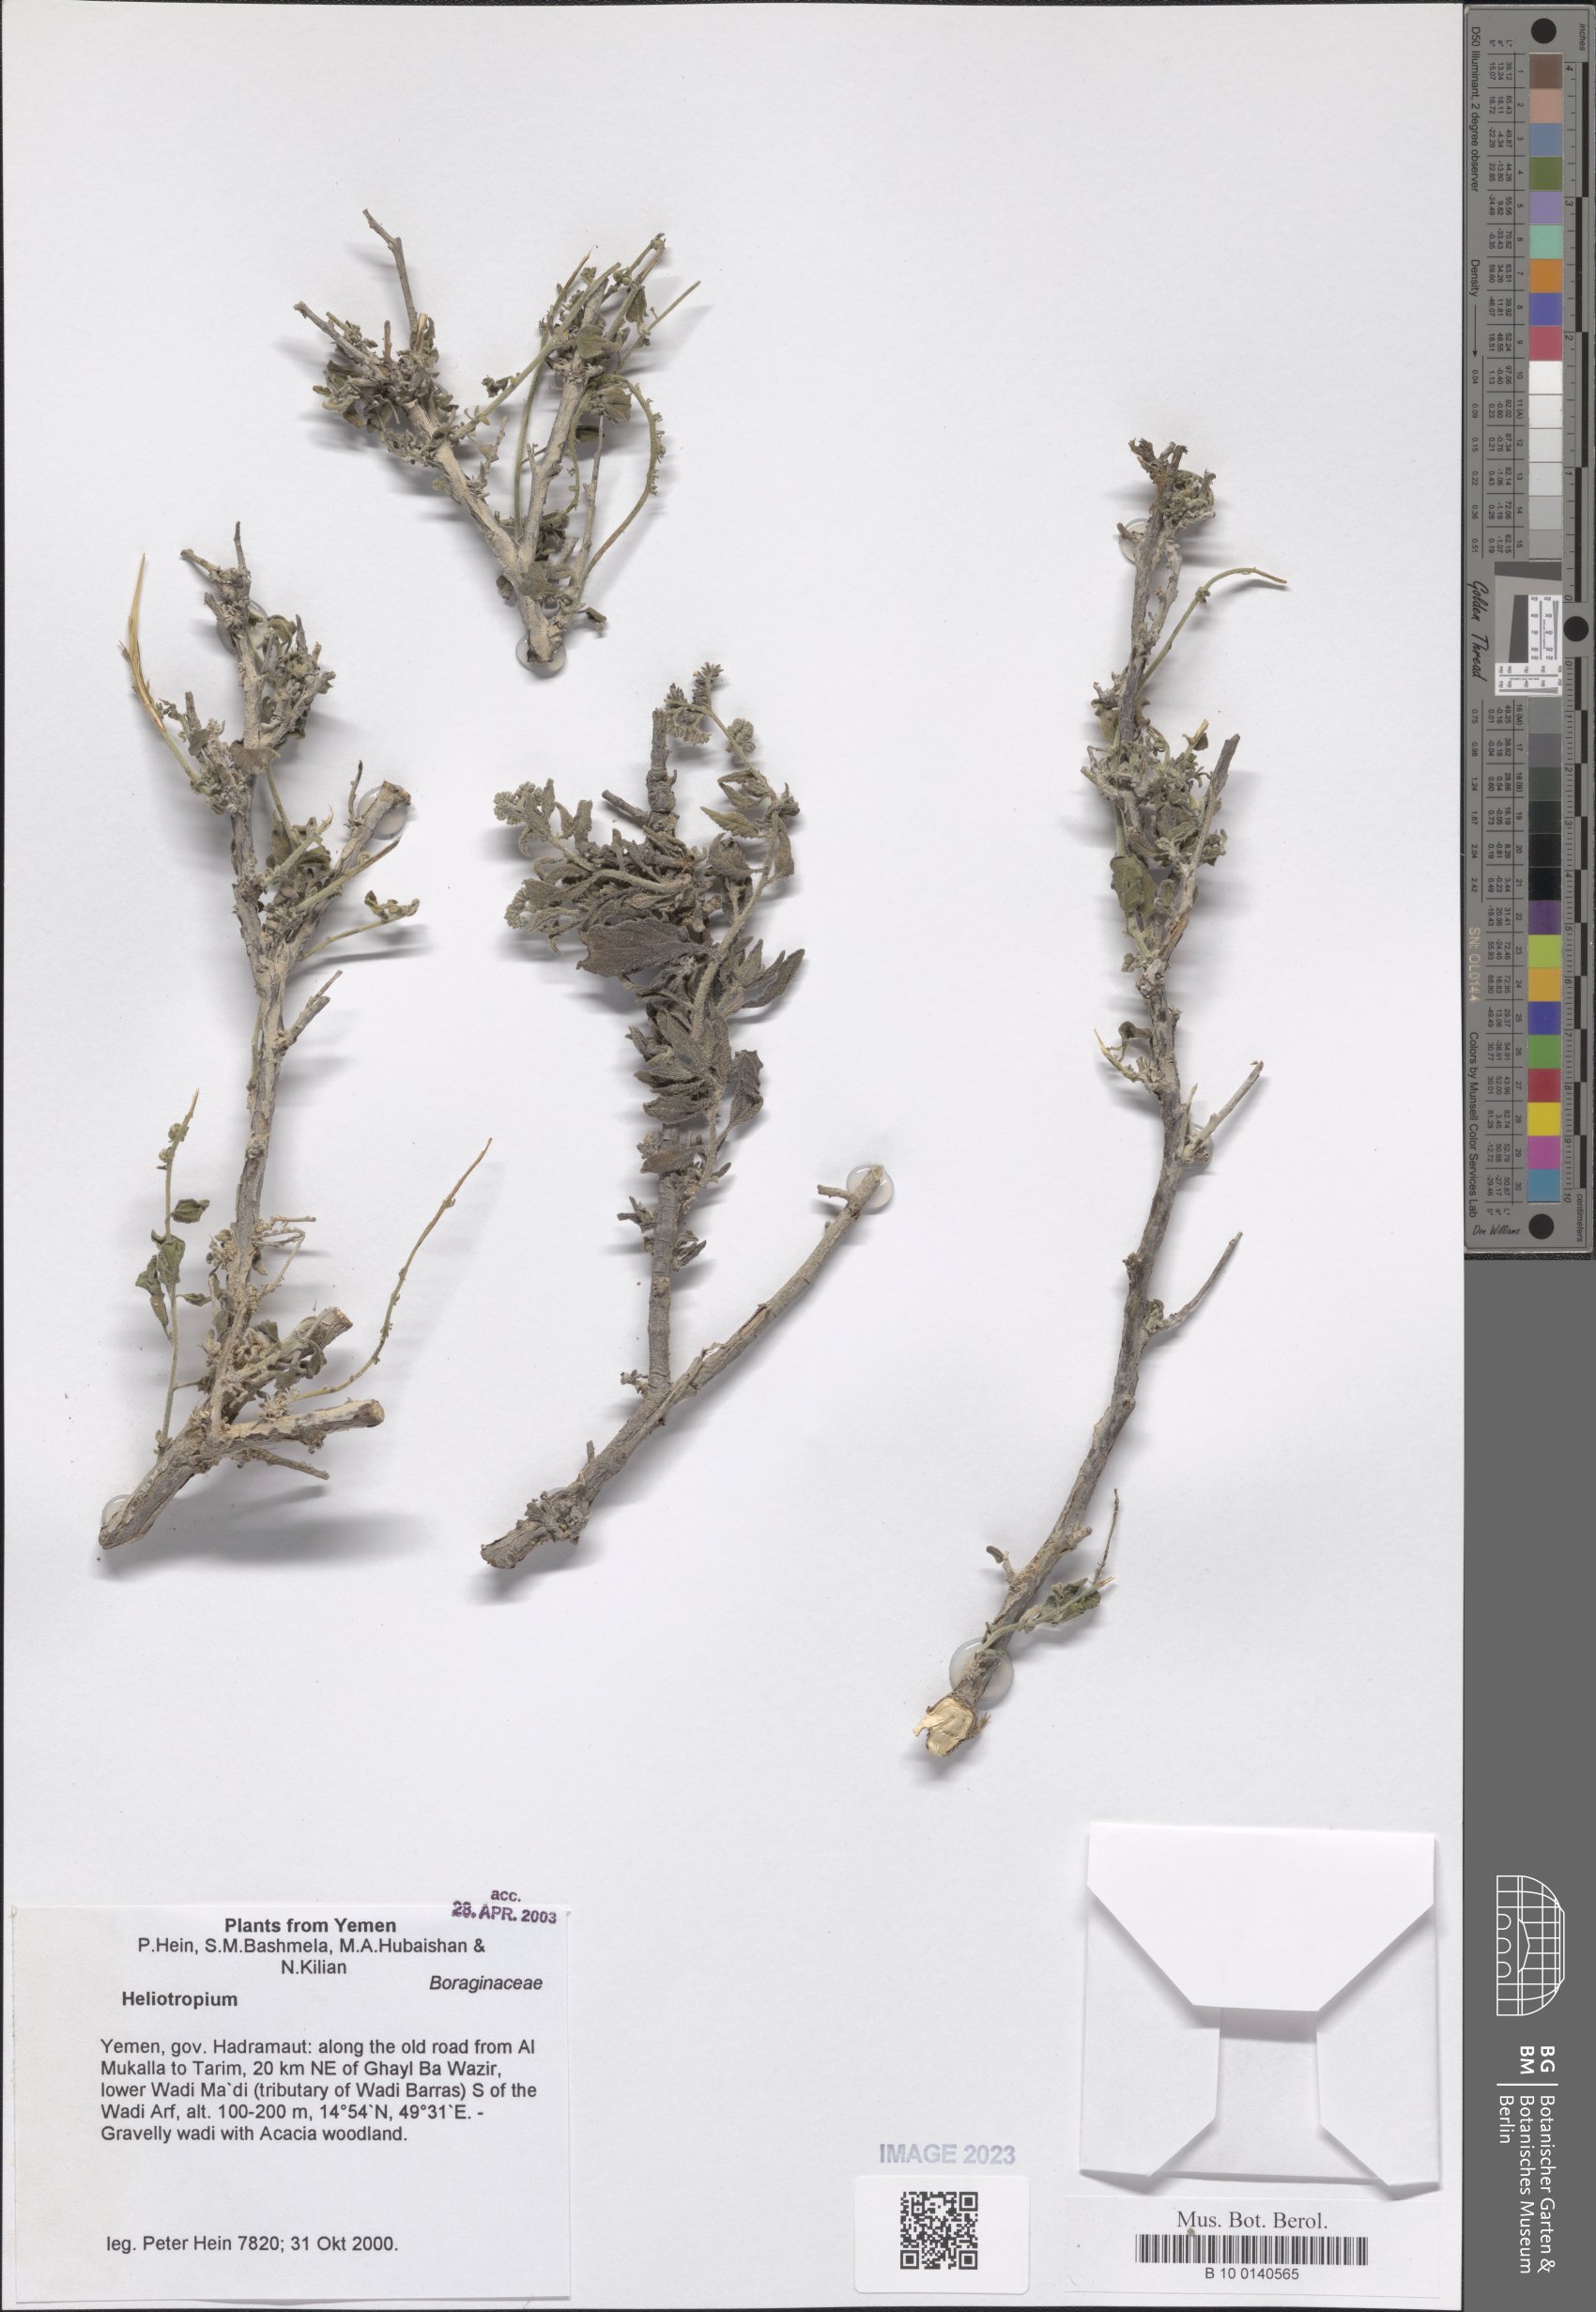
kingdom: Plantae
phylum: Tracheophyta
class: Magnoliopsida
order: Boraginales
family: Heliotropiaceae
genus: Heliotropium
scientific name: Heliotropium
